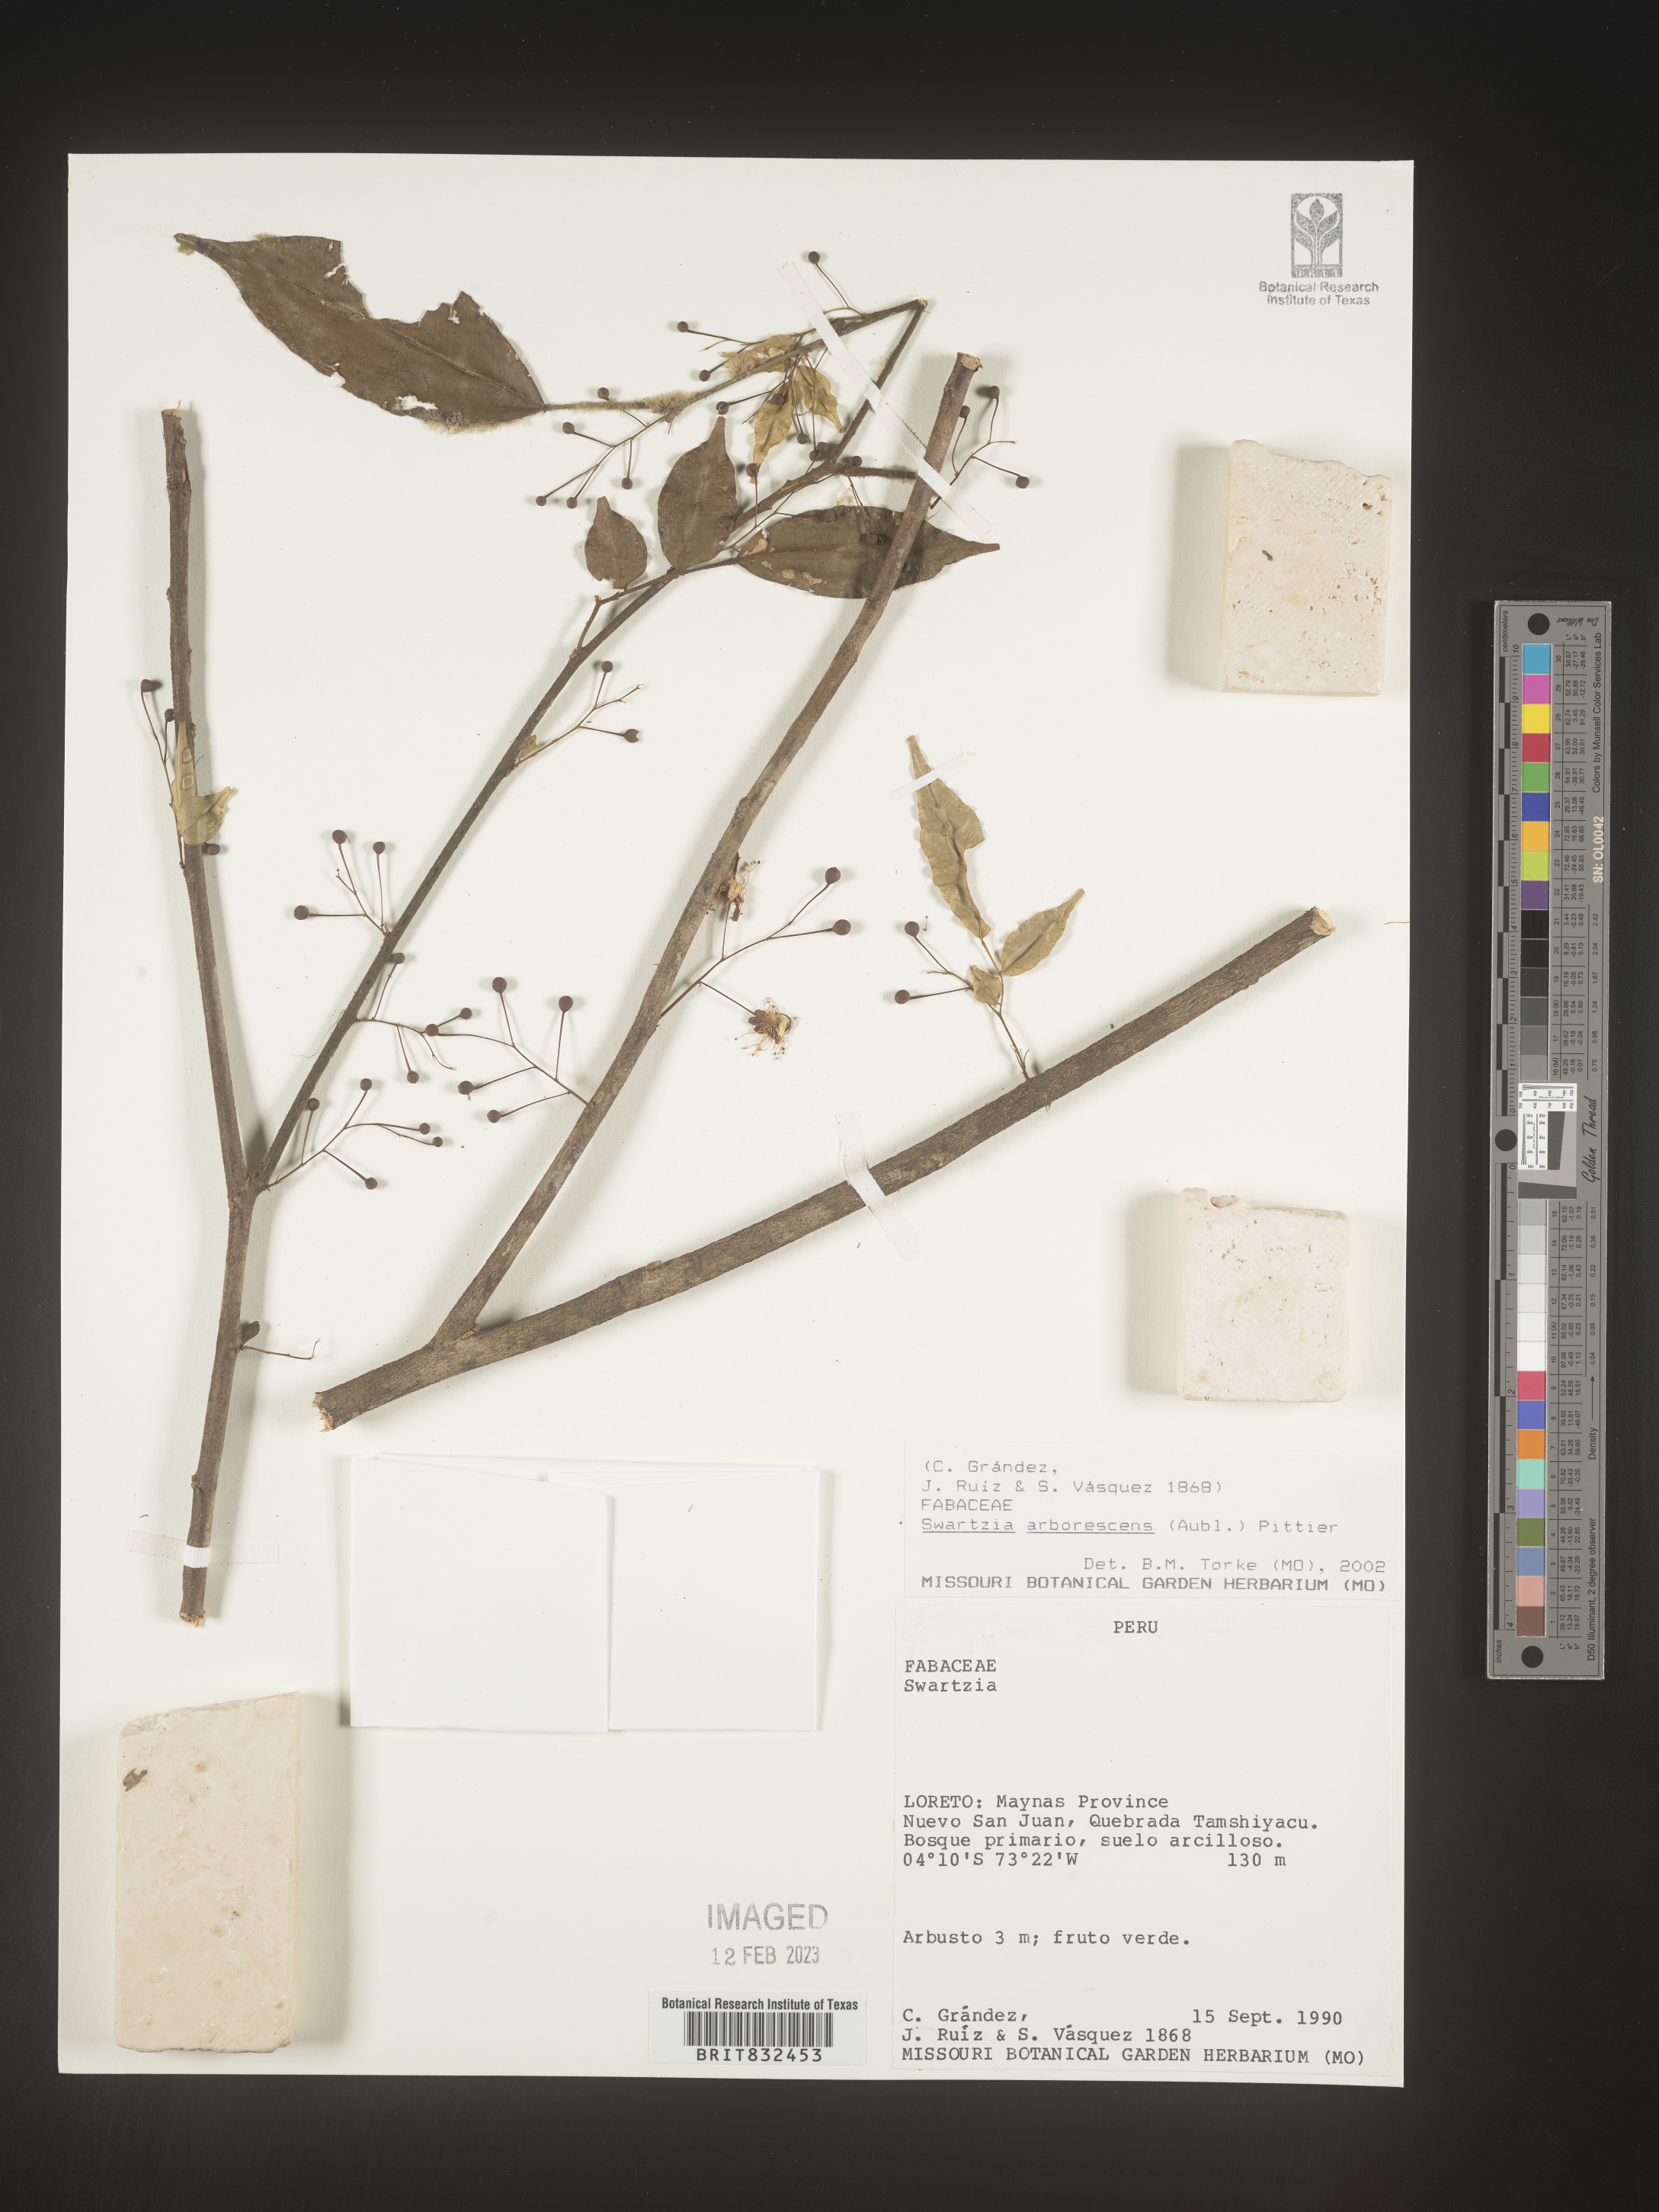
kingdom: Plantae
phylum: Tracheophyta
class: Magnoliopsida
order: Fabales
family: Fabaceae
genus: Swartzia
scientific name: Swartzia
